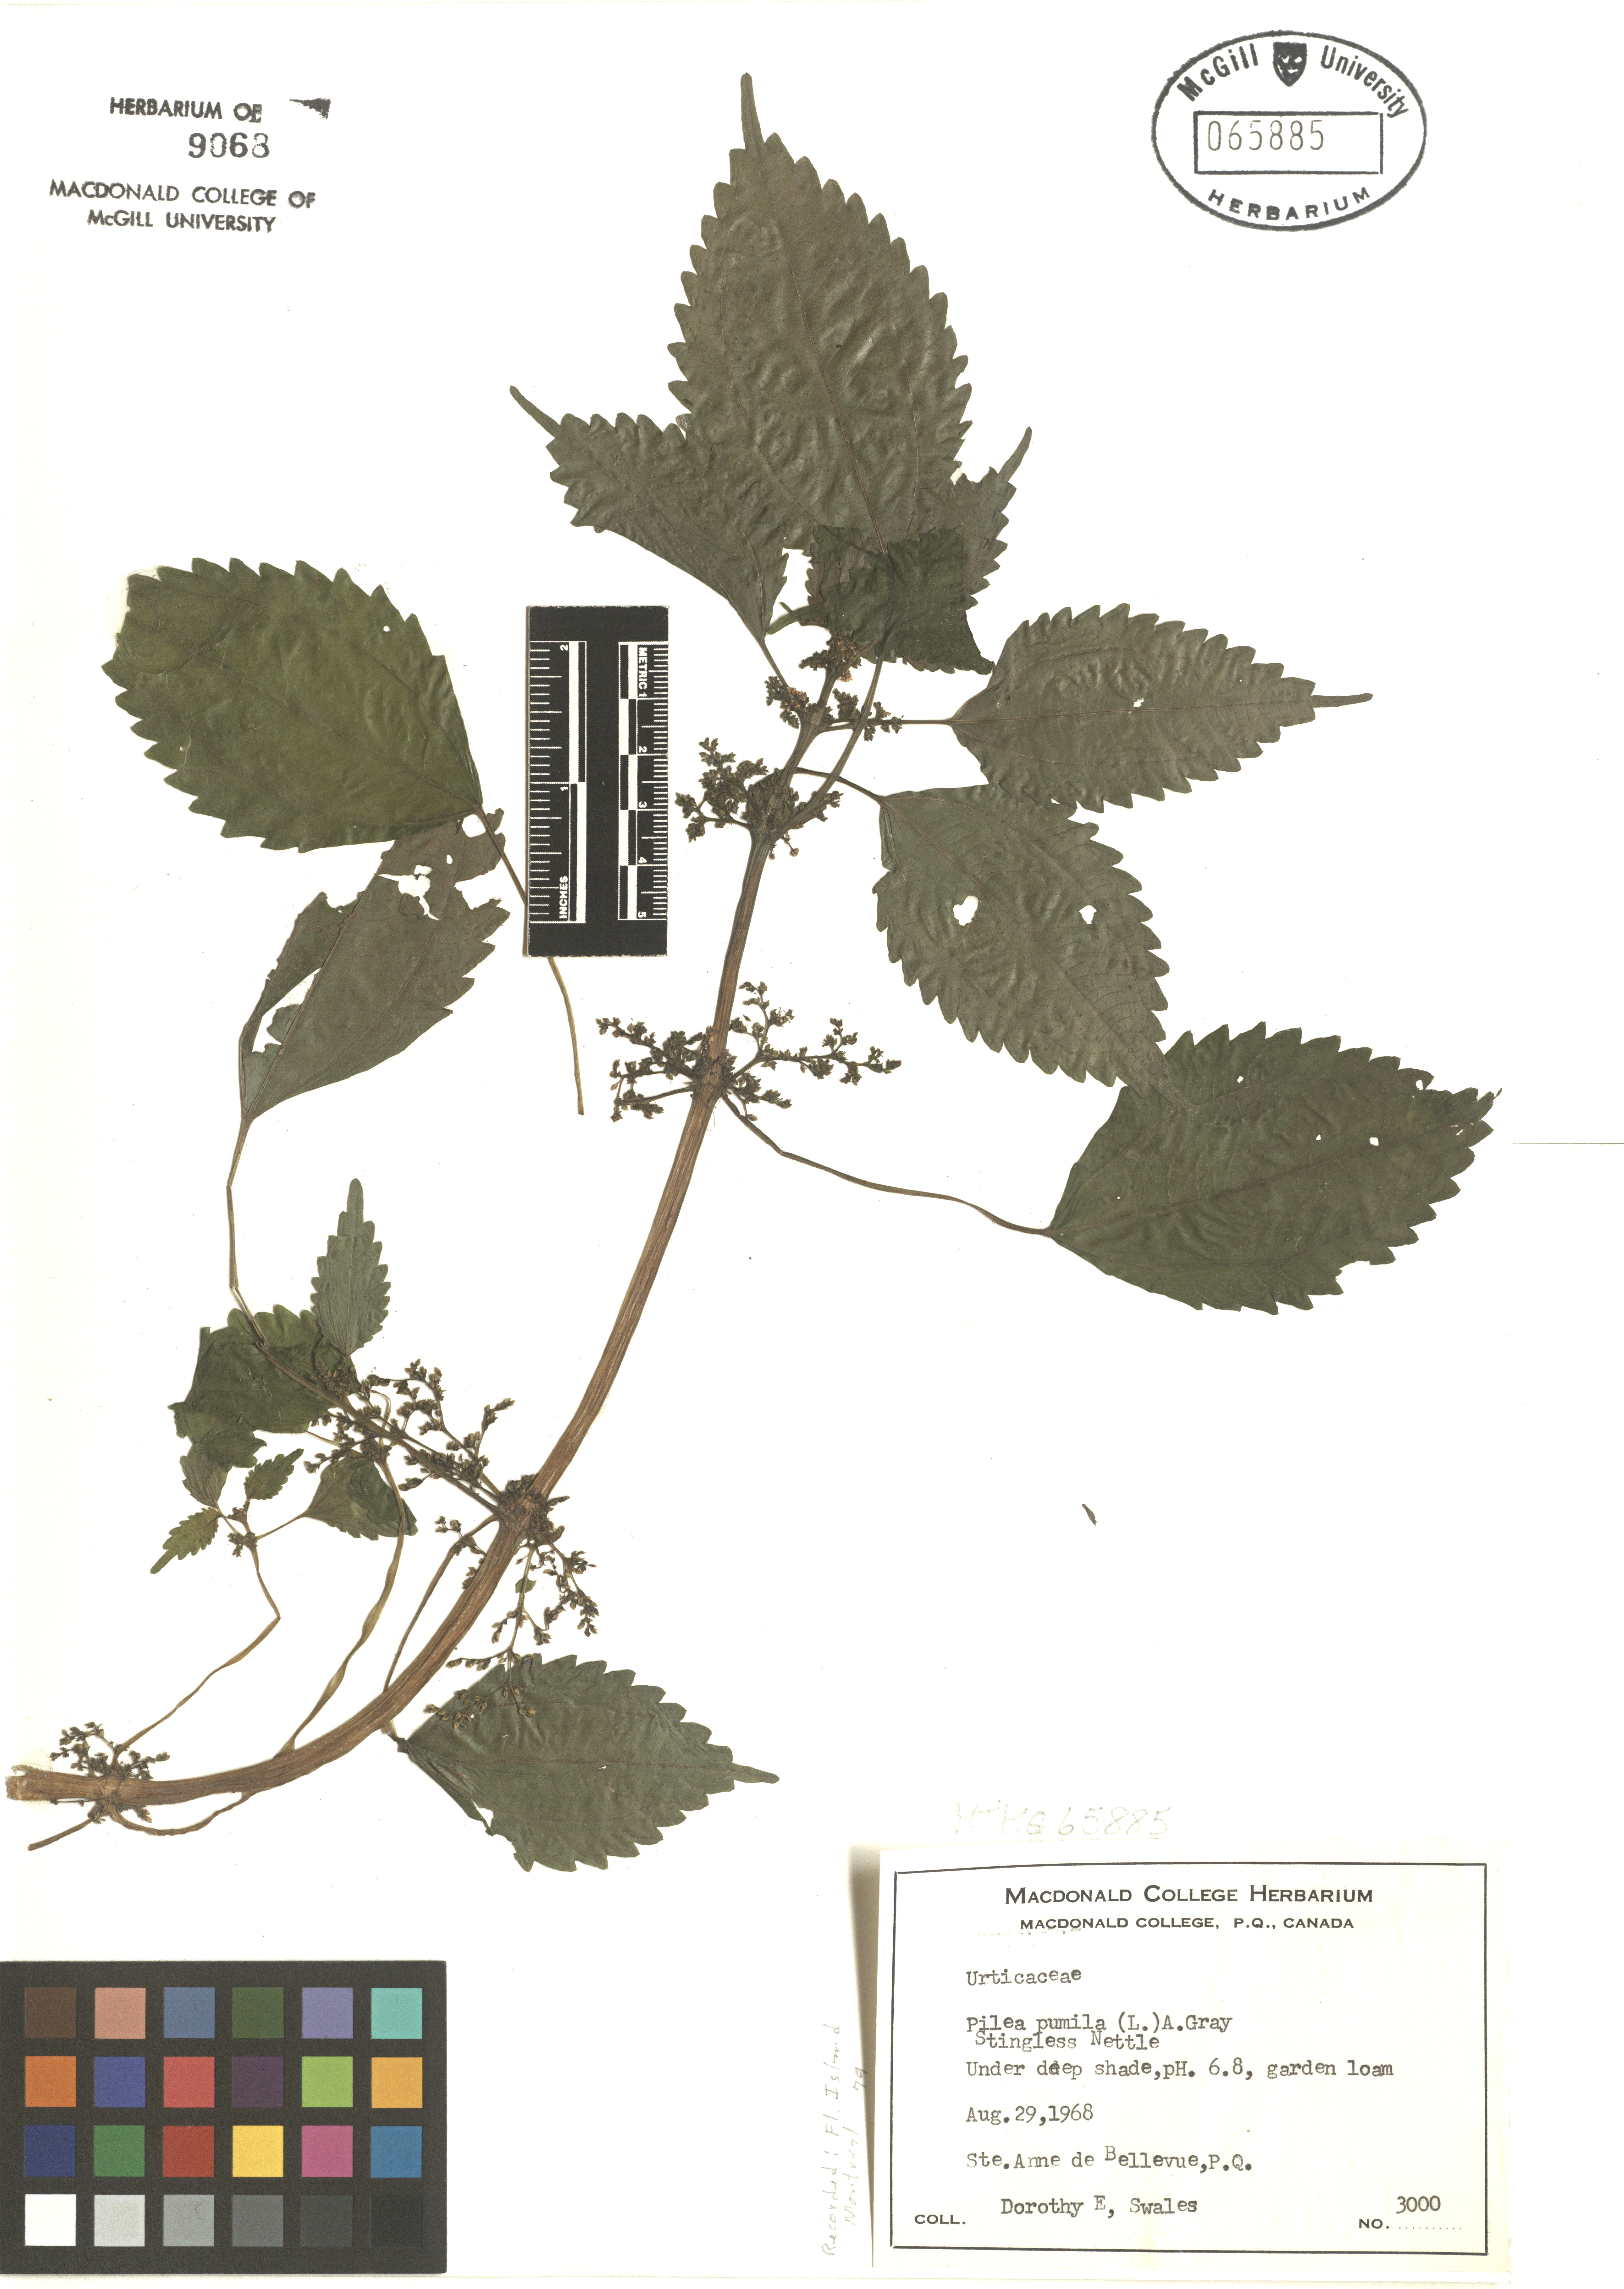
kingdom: Plantae
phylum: Tracheophyta
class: Magnoliopsida
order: Rosales
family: Urticaceae
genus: Pilea
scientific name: Pilea pumila
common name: Clearweed
